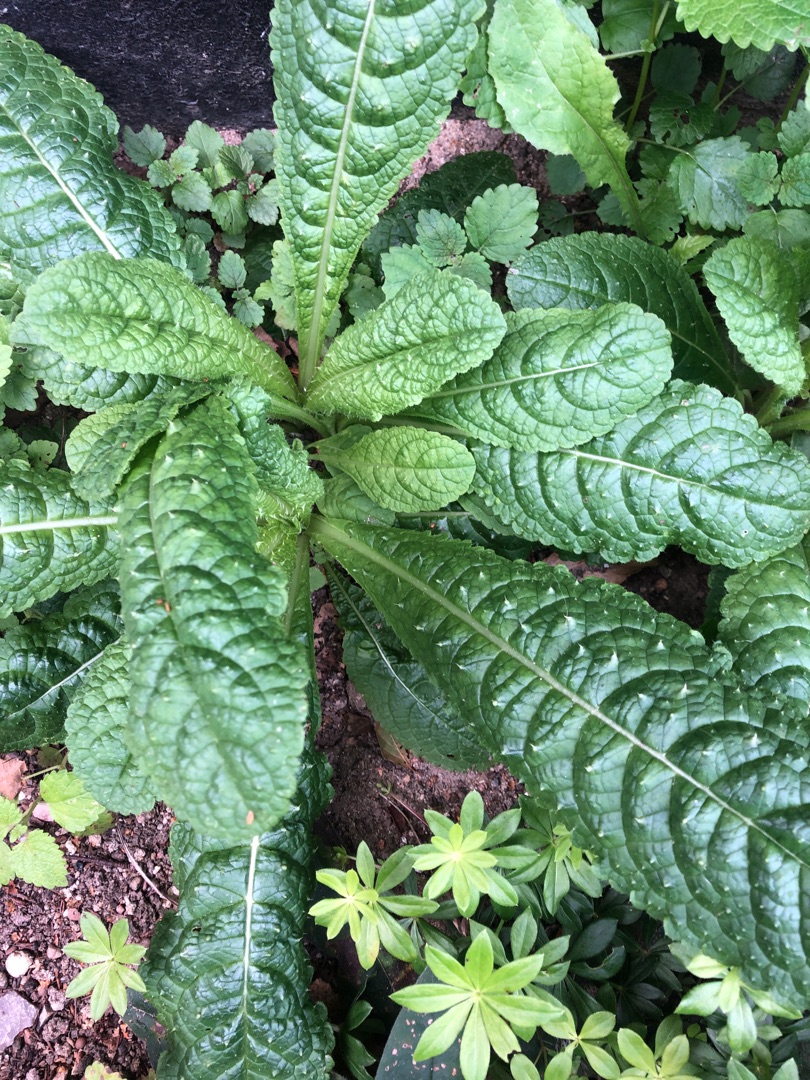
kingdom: Plantae
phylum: Tracheophyta
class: Magnoliopsida
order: Dipsacales
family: Caprifoliaceae
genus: Dipsacus
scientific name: Dipsacus fullonum
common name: Gærde-kartebolle
